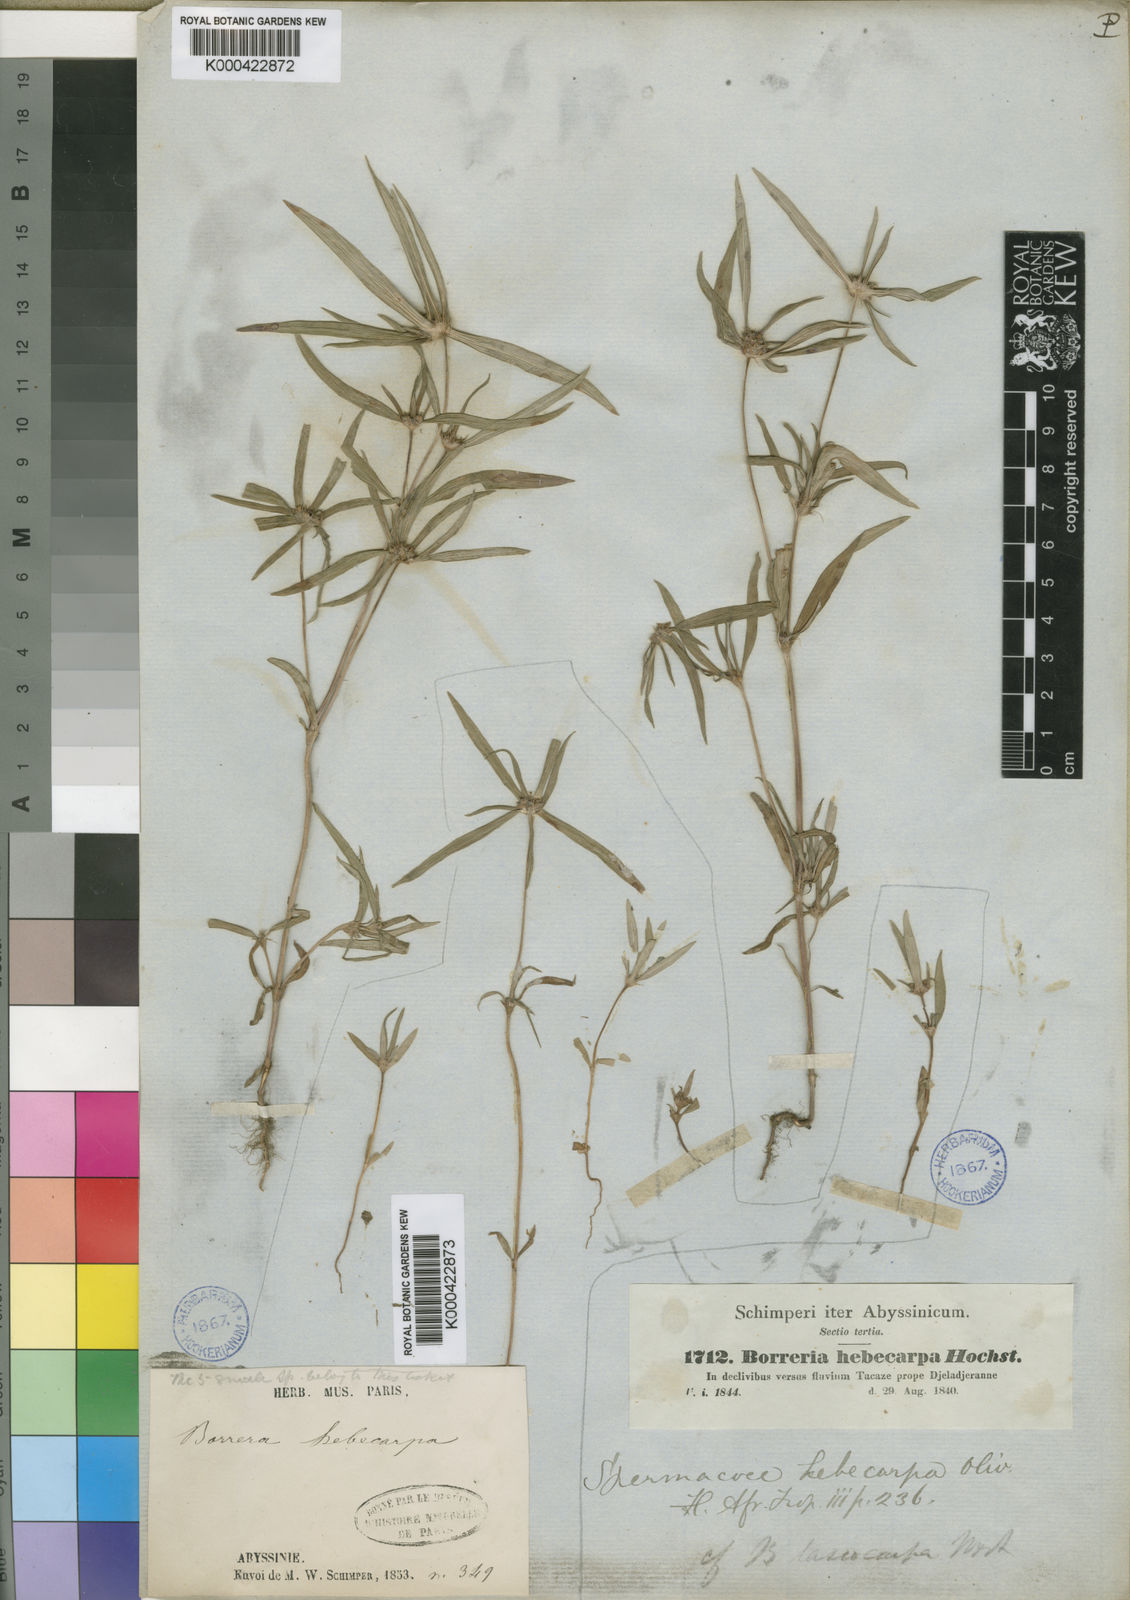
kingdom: Plantae
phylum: Tracheophyta
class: Magnoliopsida
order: Gentianales
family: Rubiaceae
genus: Spermacoce
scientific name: Spermacoce chaetocephala
